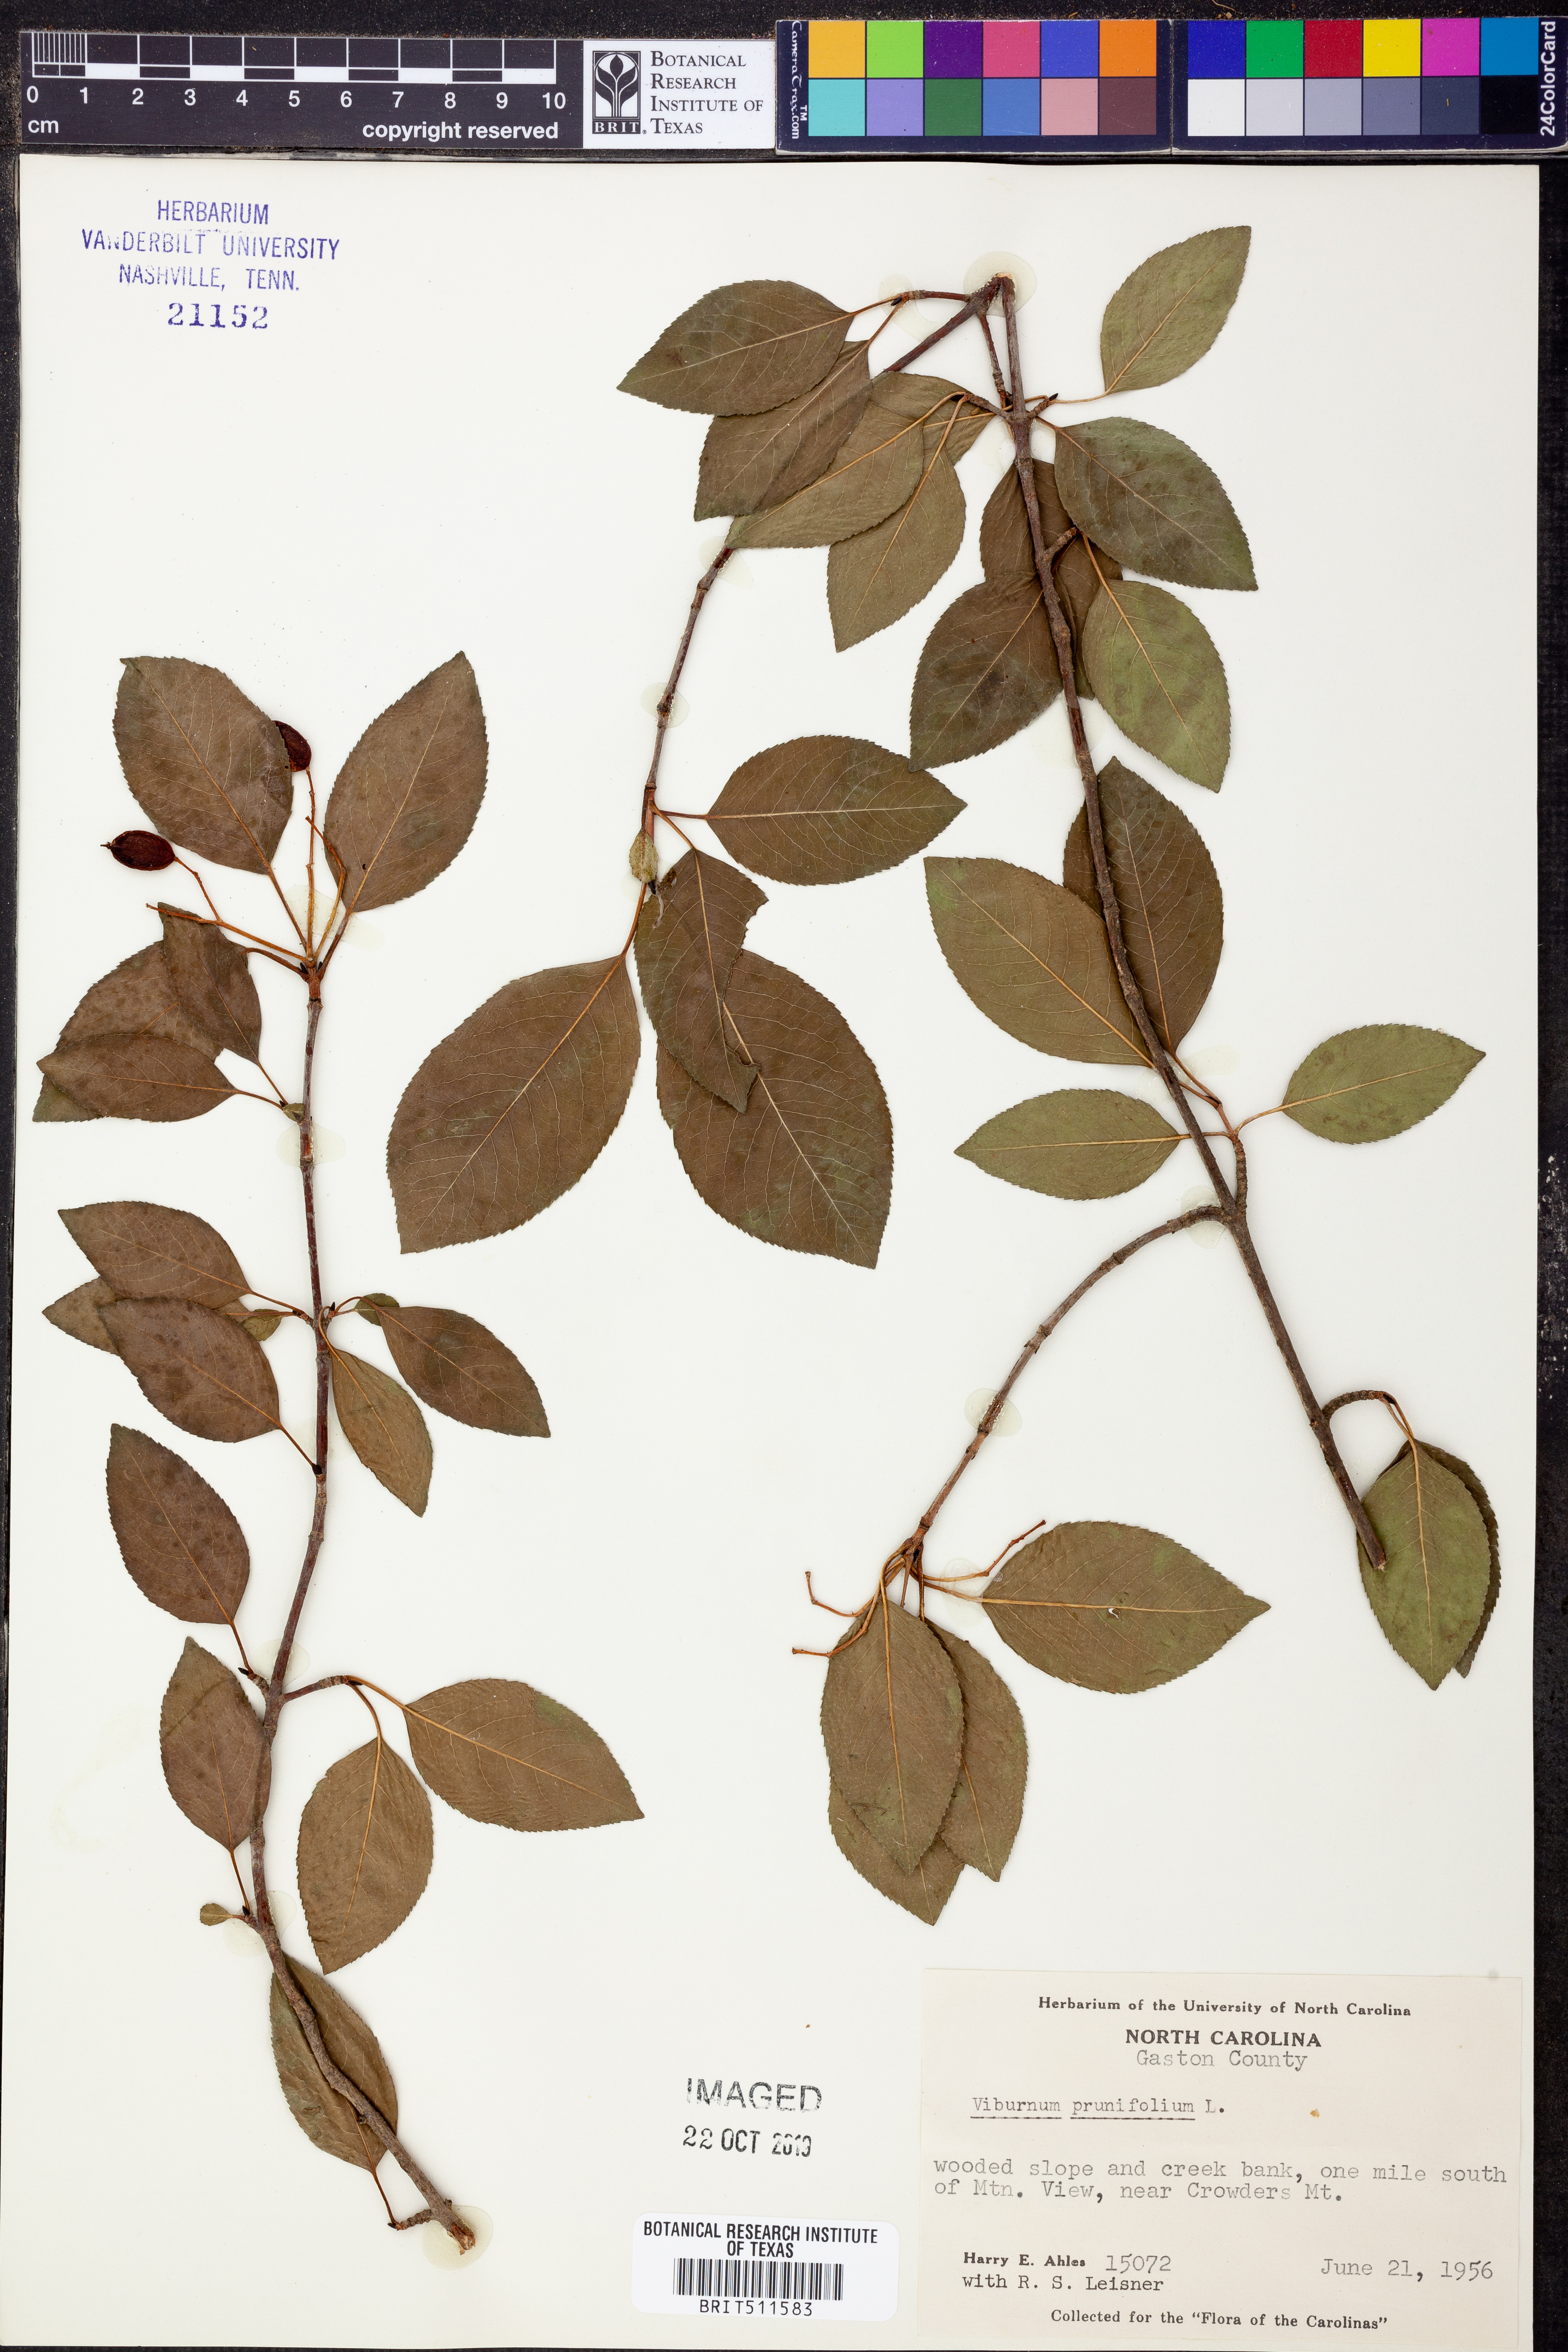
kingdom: Plantae
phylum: Tracheophyta
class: Magnoliopsida
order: Dipsacales
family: Viburnaceae
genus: Viburnum
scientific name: Viburnum prunifolium
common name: Black haw
